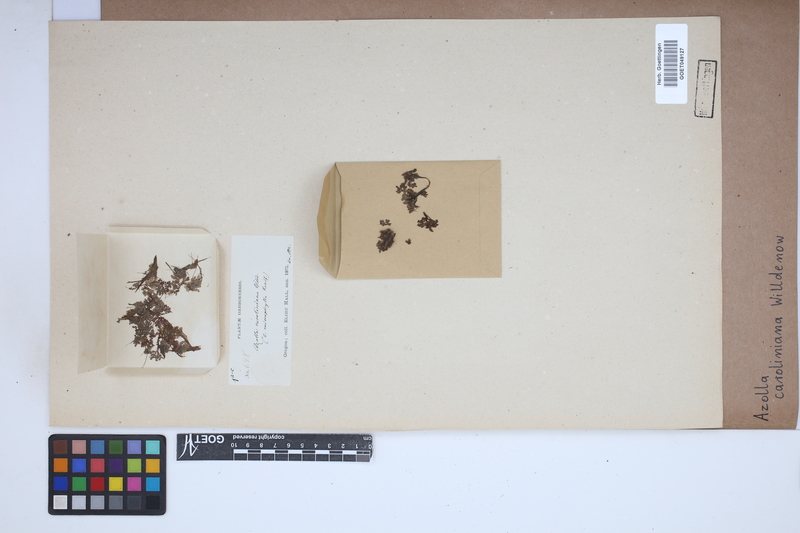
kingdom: Plantae
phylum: Tracheophyta
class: Polypodiopsida
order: Salviniales
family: Salviniaceae
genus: Azolla
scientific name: Azolla caroliniana
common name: Carolina mosquitofern
